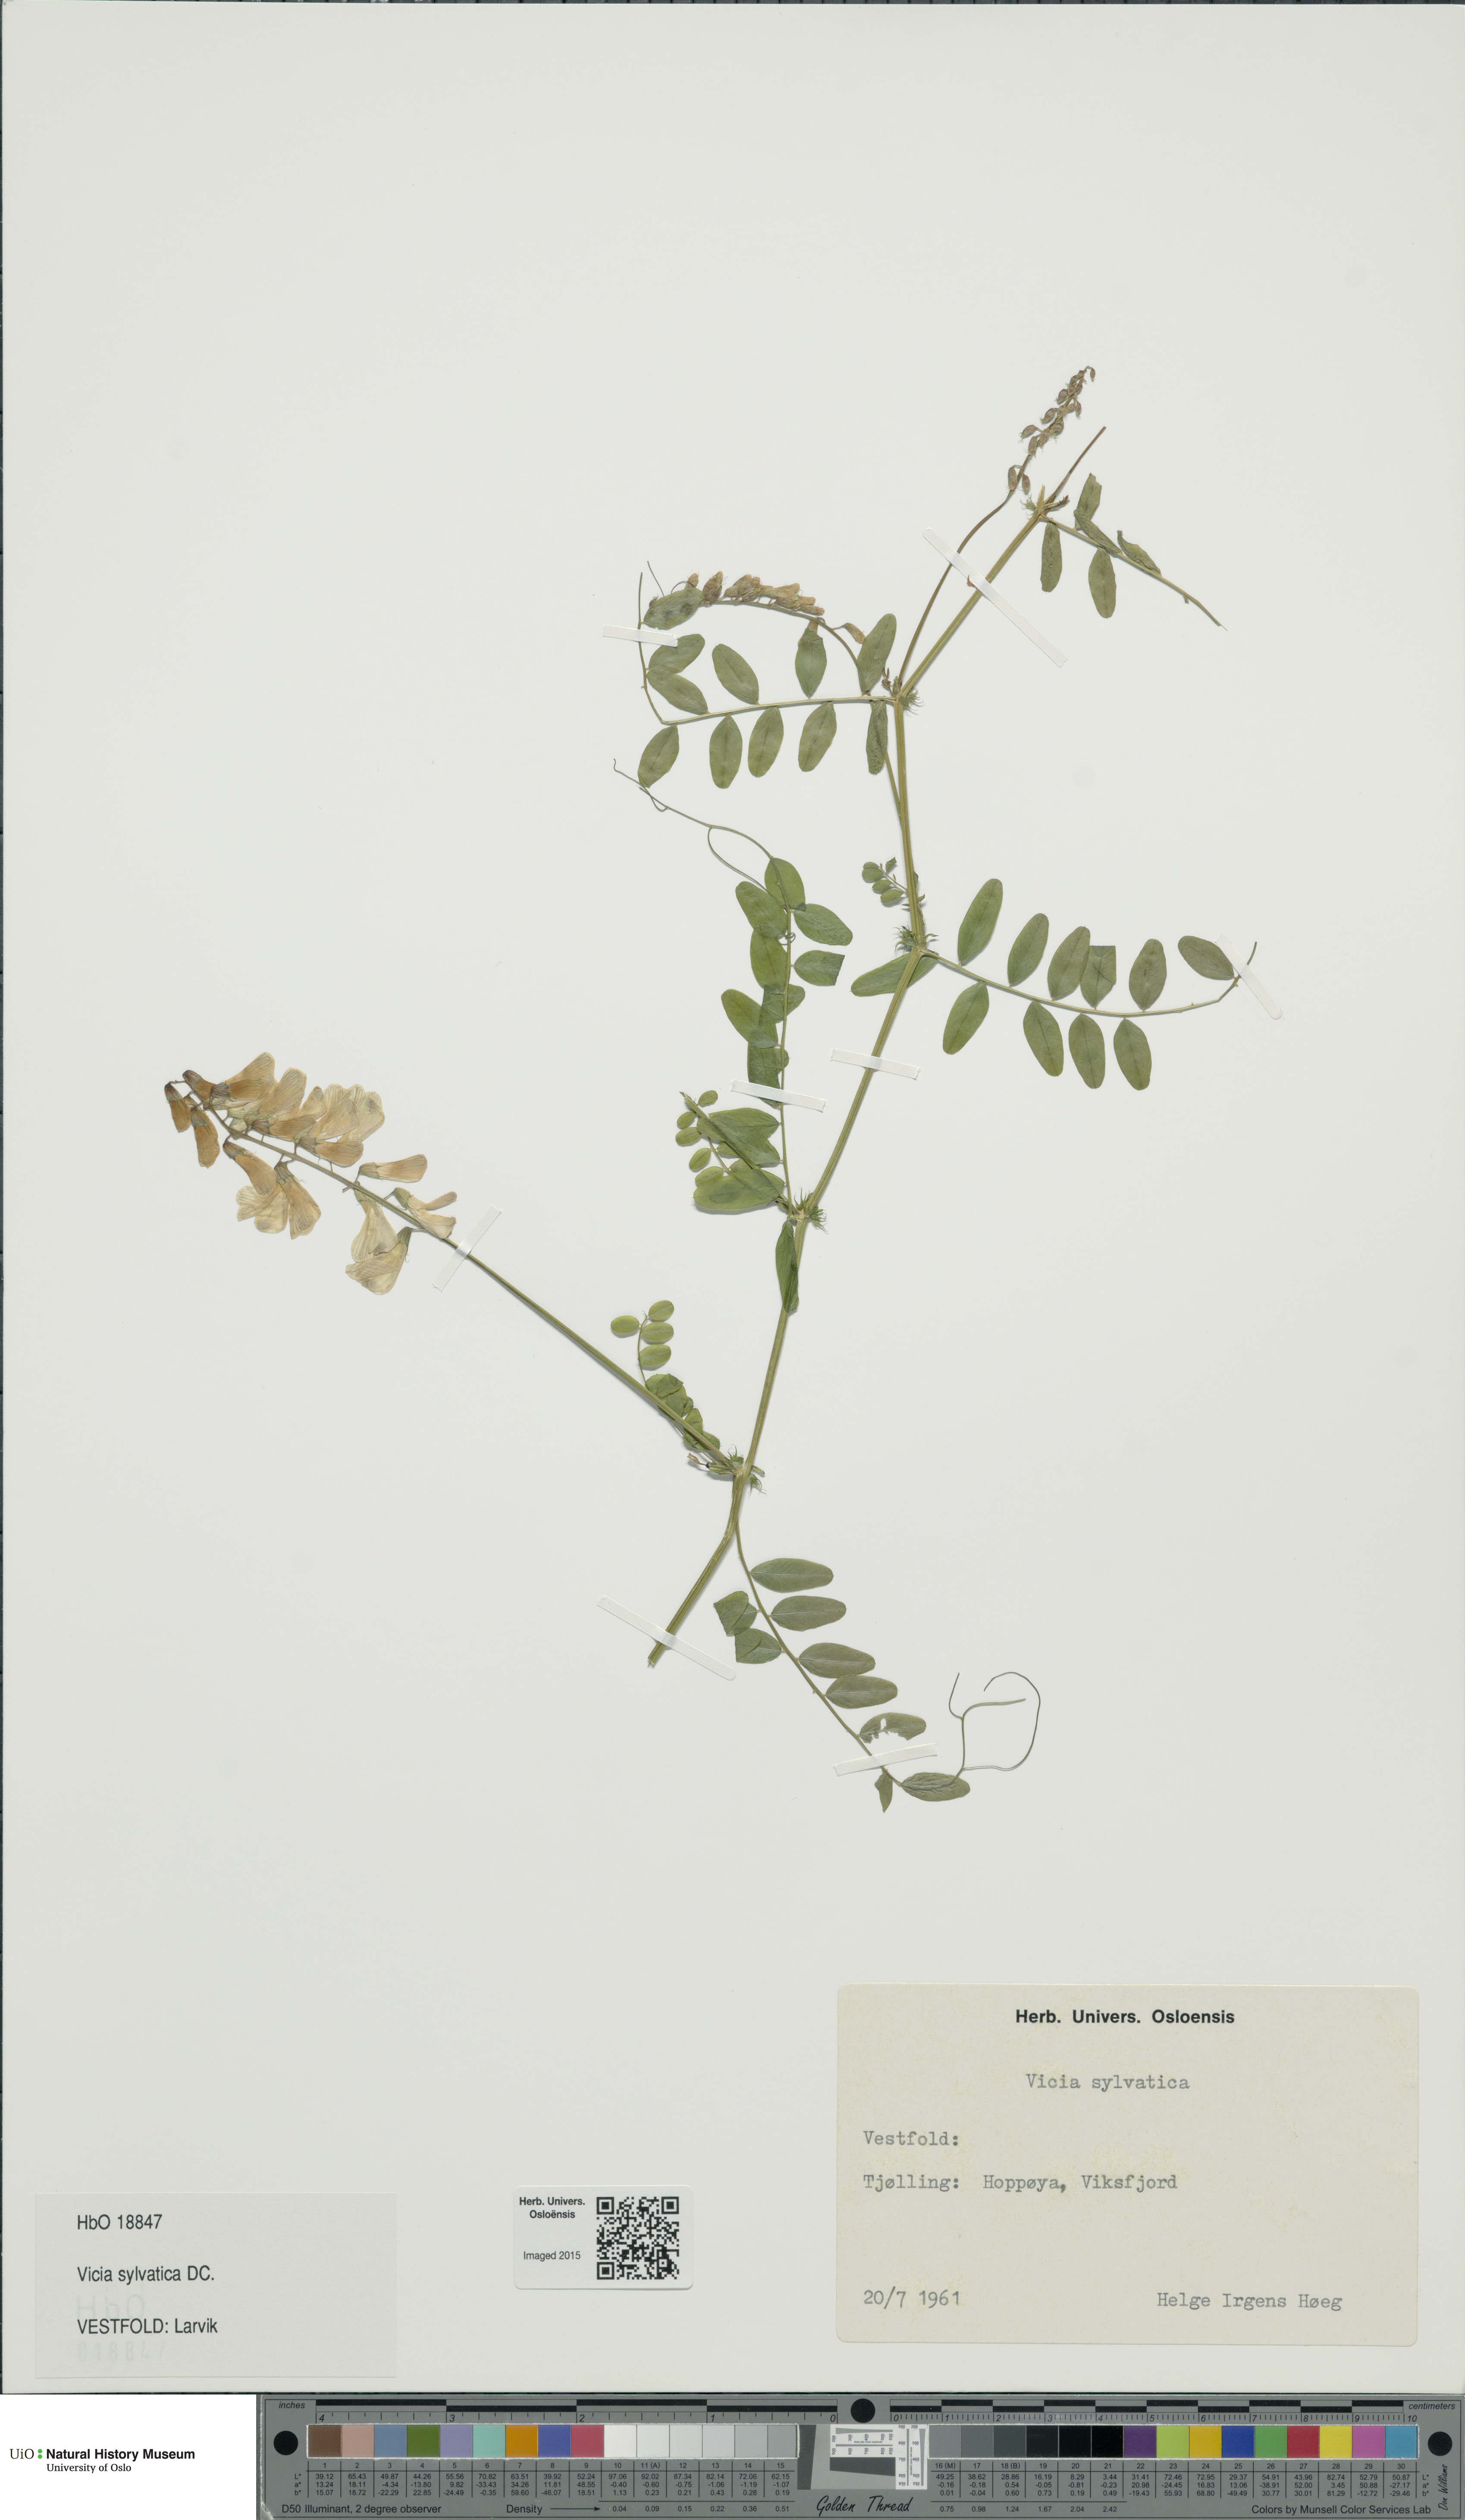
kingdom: Plantae
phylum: Tracheophyta
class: Magnoliopsida
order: Fabales
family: Fabaceae
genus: Vicia
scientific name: Vicia sylvatica
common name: Wood vetch
